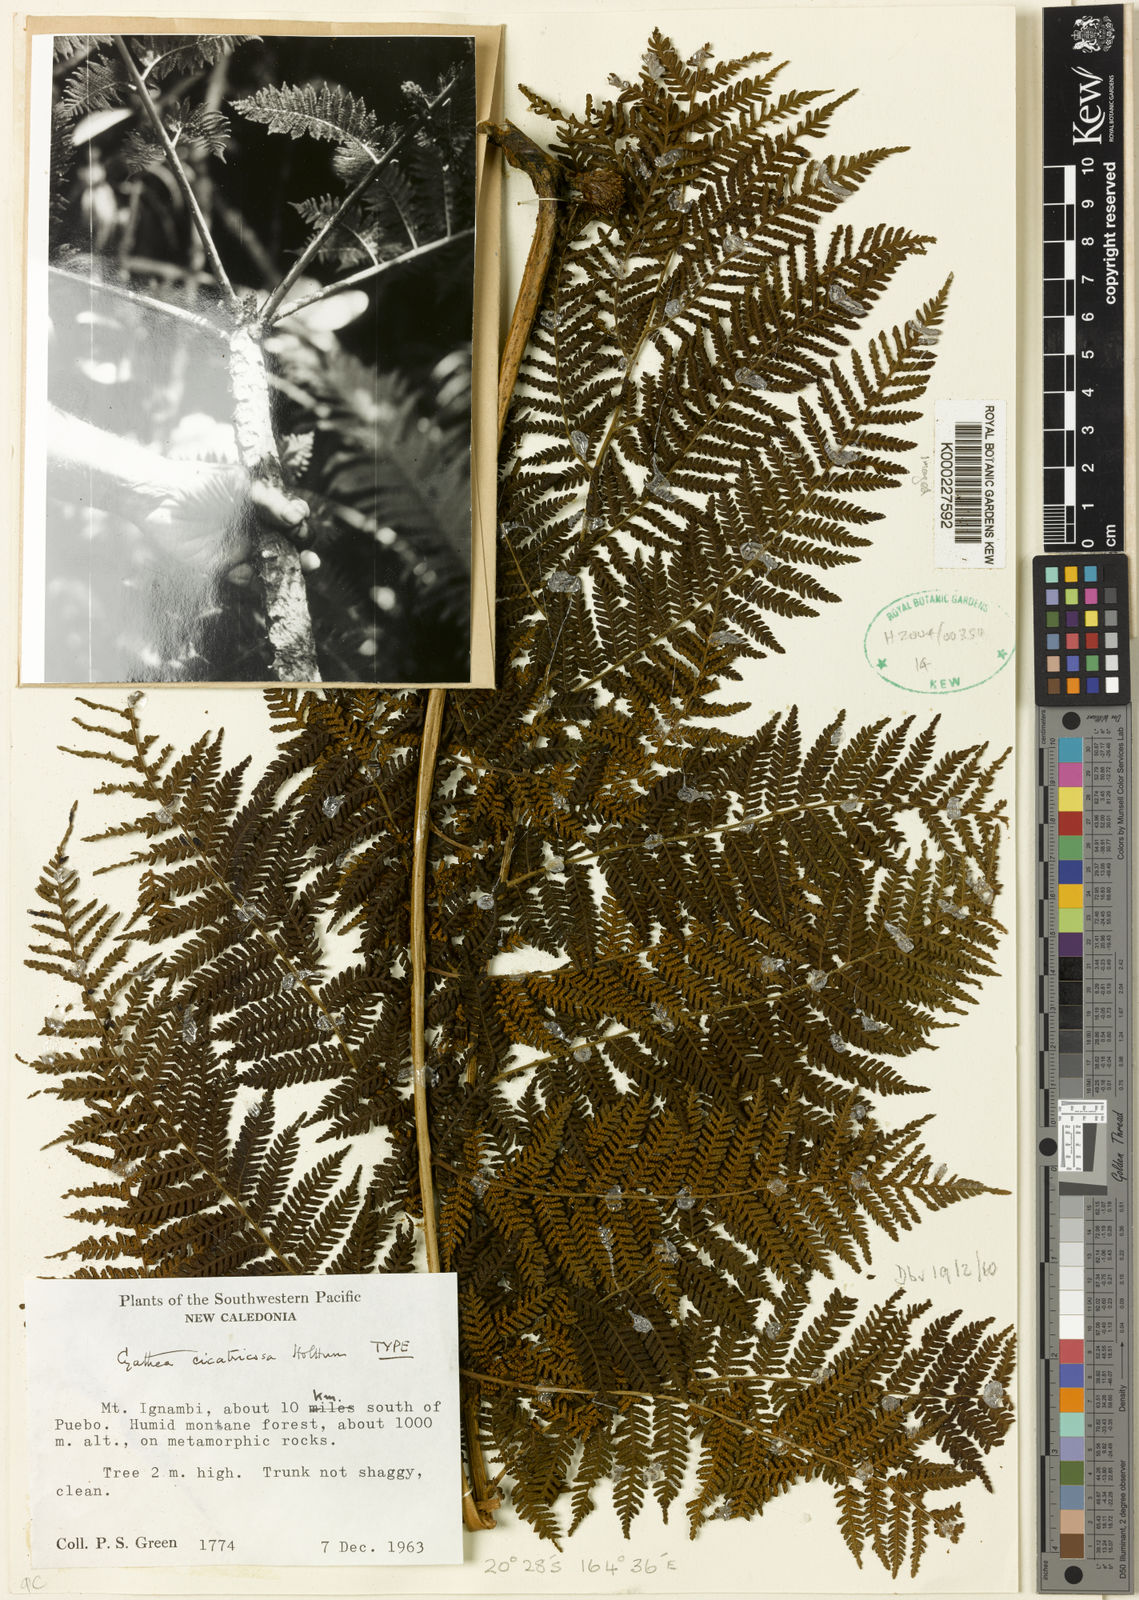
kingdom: Plantae
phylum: Tracheophyta
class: Polypodiopsida
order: Cyatheales
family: Cyatheaceae
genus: Cyathea
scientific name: Cyathea cicatricosa
